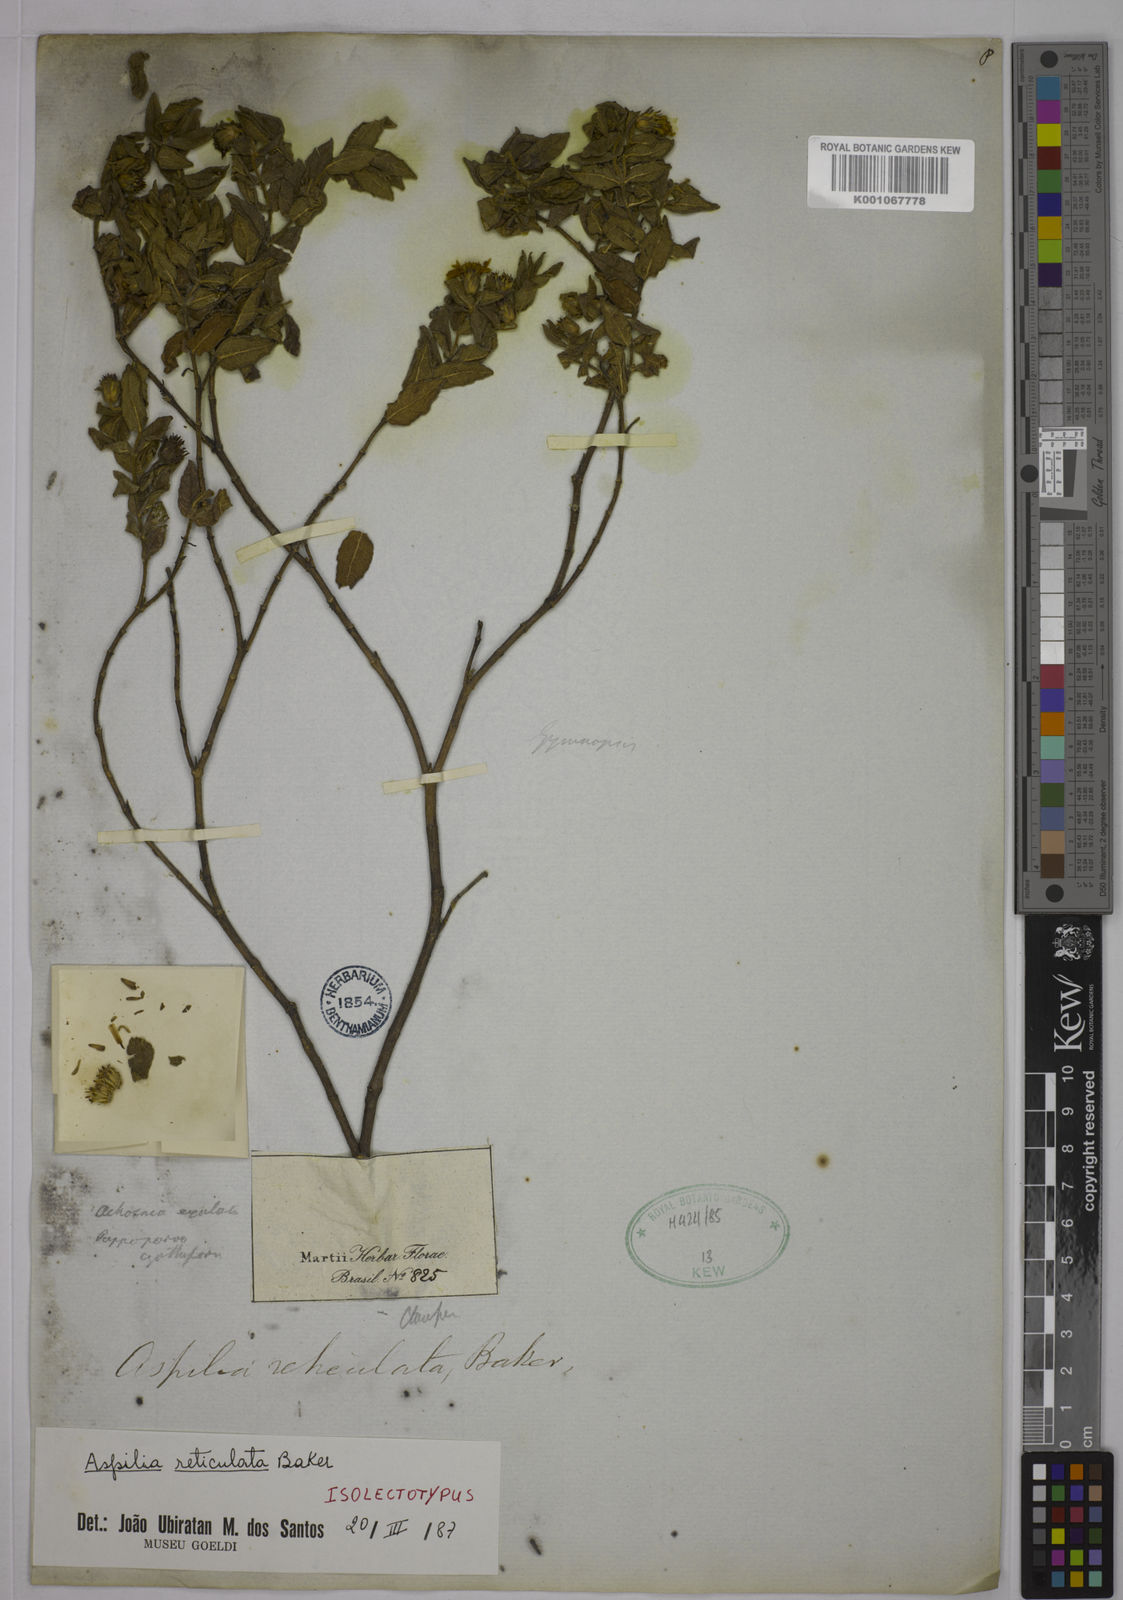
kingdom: Plantae
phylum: Tracheophyta
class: Magnoliopsida
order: Asterales
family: Asteraceae
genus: Wedelia
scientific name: Wedelia frioana
